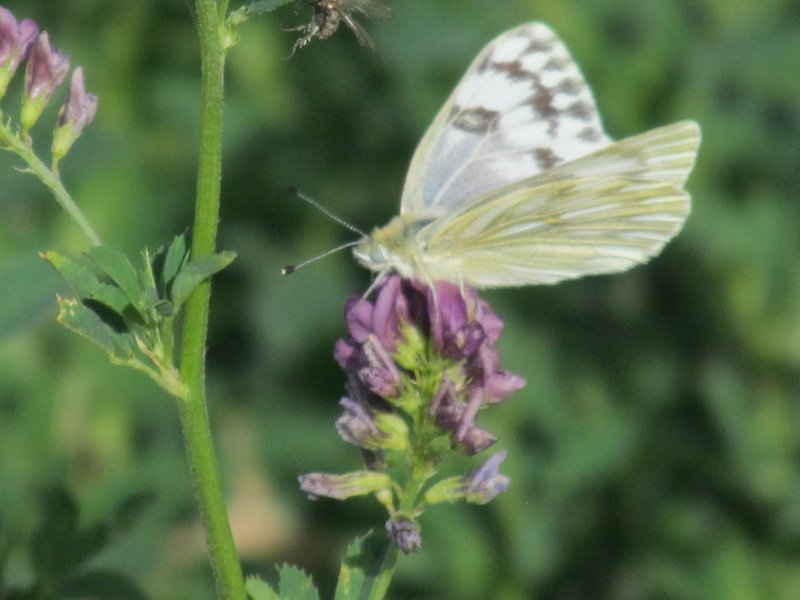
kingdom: Animalia
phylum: Arthropoda
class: Insecta
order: Lepidoptera
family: Pieridae
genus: Pontia
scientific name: Pontia occidentalis
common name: Western White
